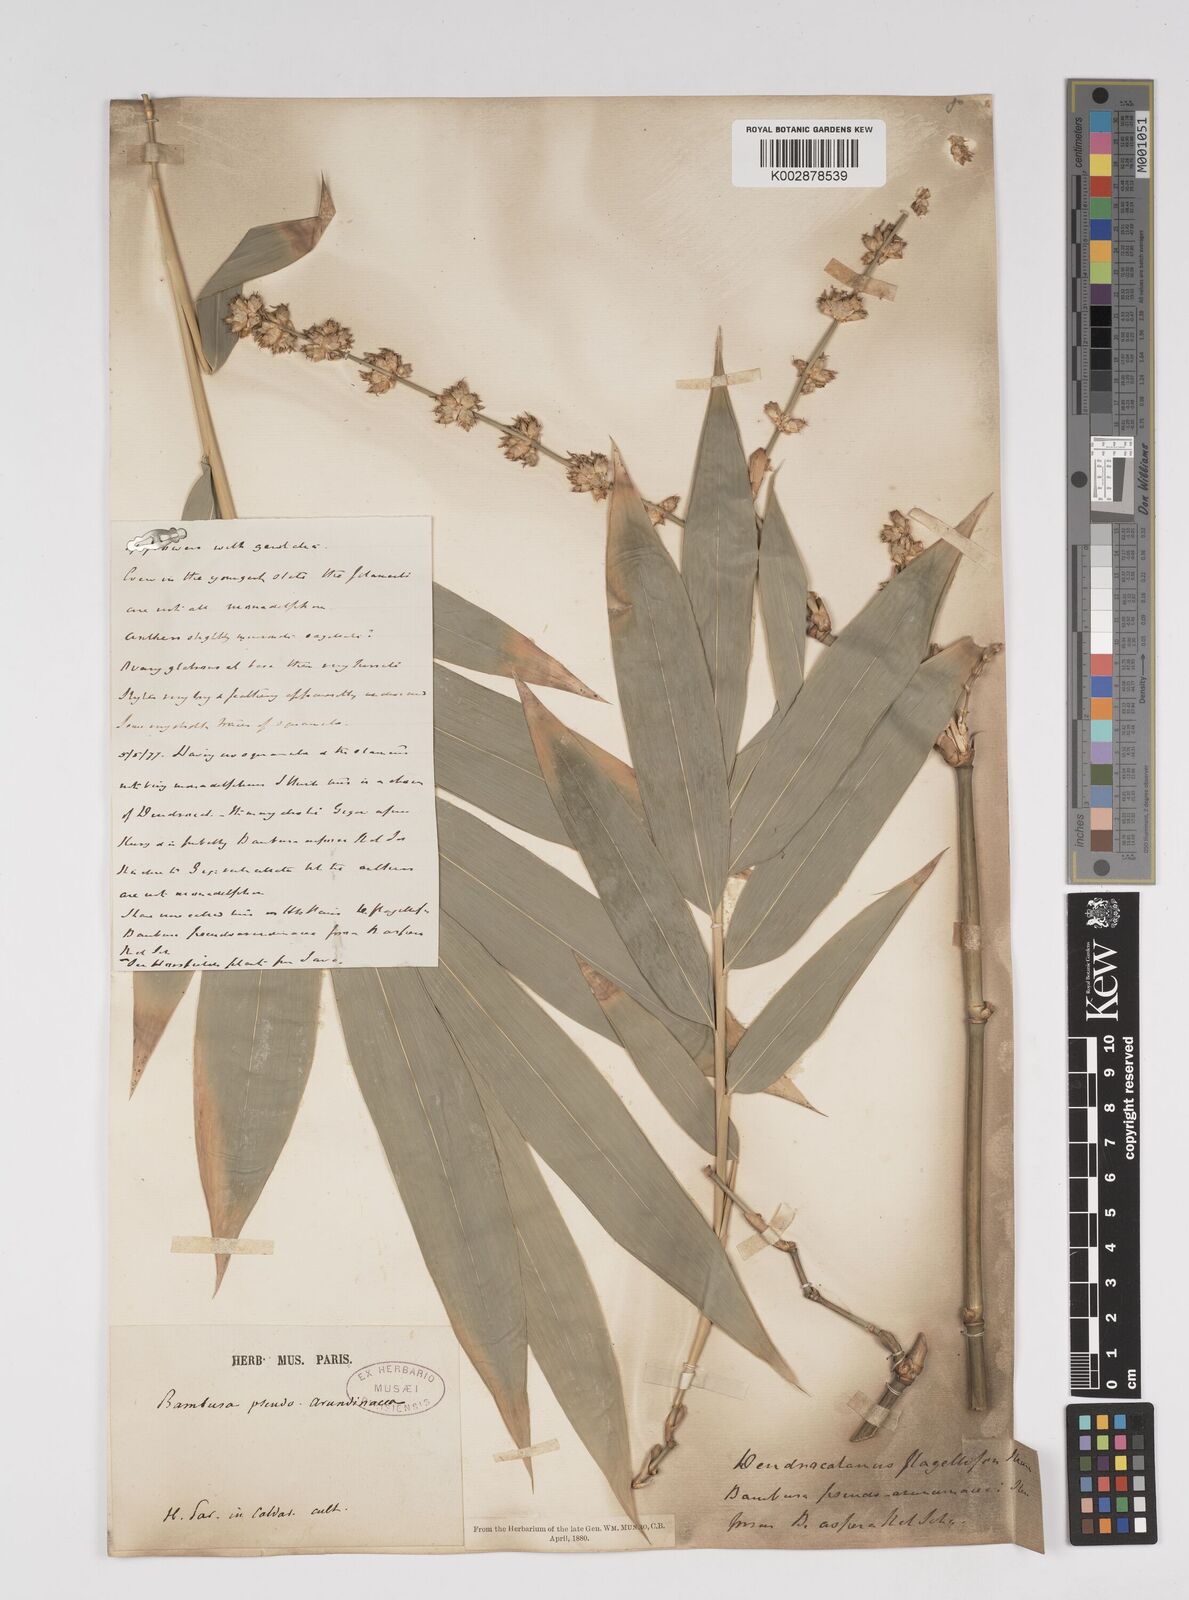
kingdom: Plantae
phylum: Tracheophyta
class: Liliopsida
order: Poales
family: Poaceae
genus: Dendrocalamus
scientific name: Dendrocalamus asper
